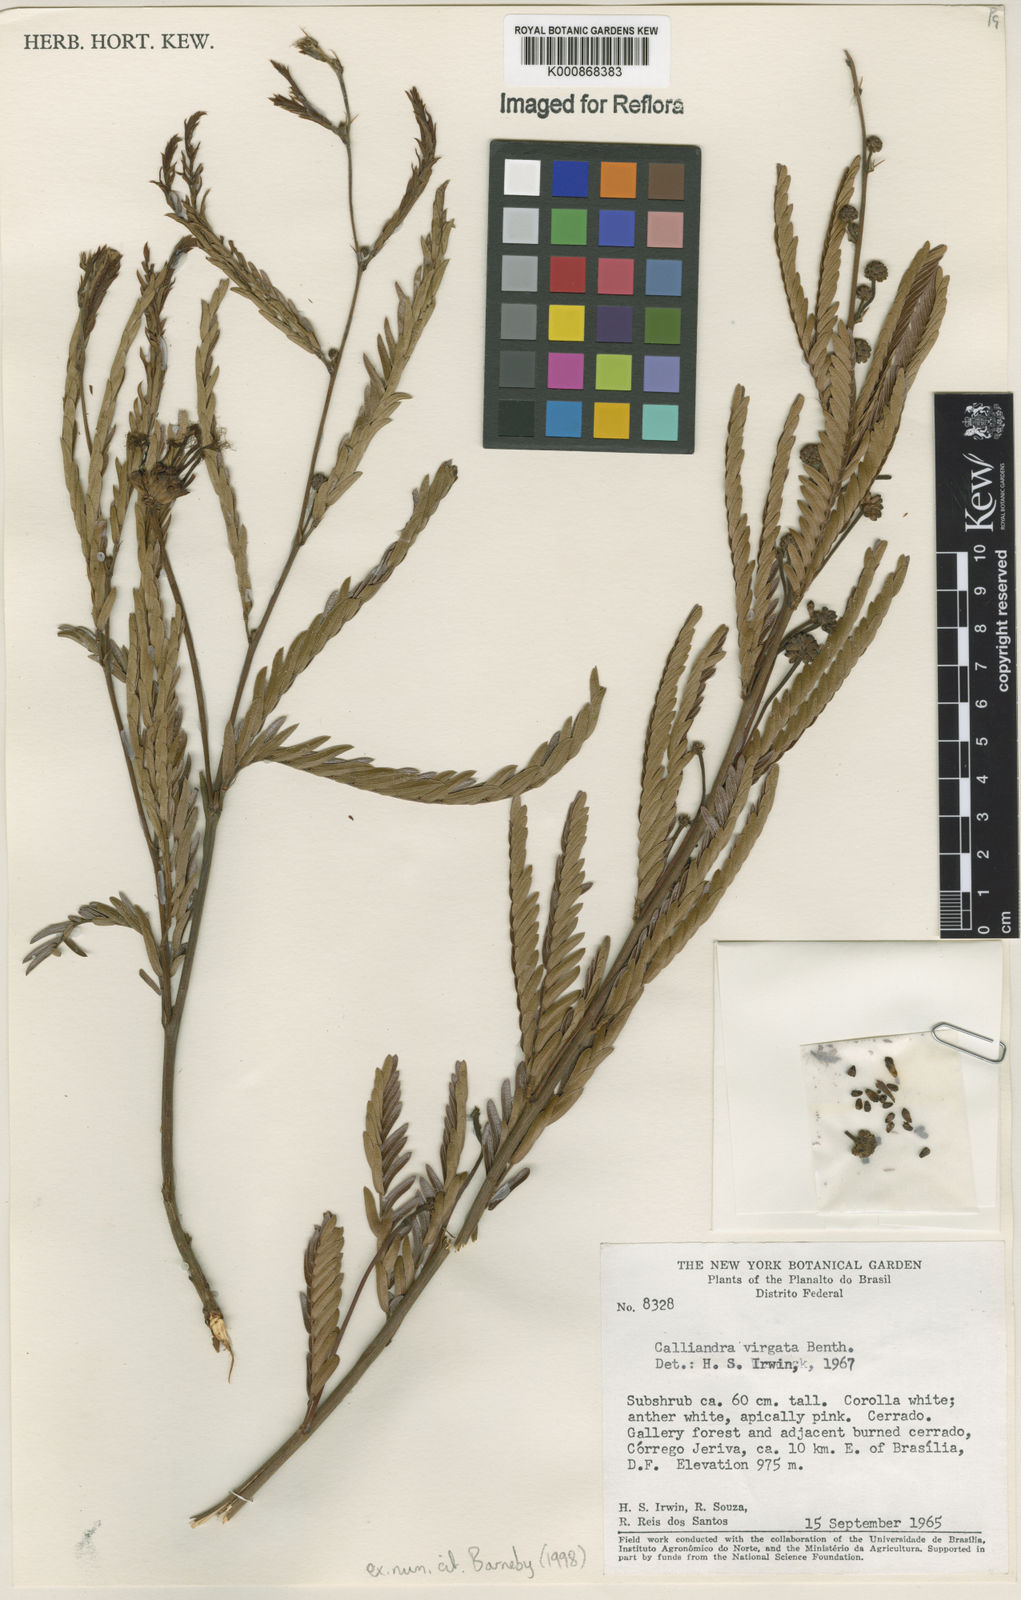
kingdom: Plantae
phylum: Tracheophyta
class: Magnoliopsida
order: Fabales
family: Fabaceae
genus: Calliandra
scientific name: Calliandra virgata
